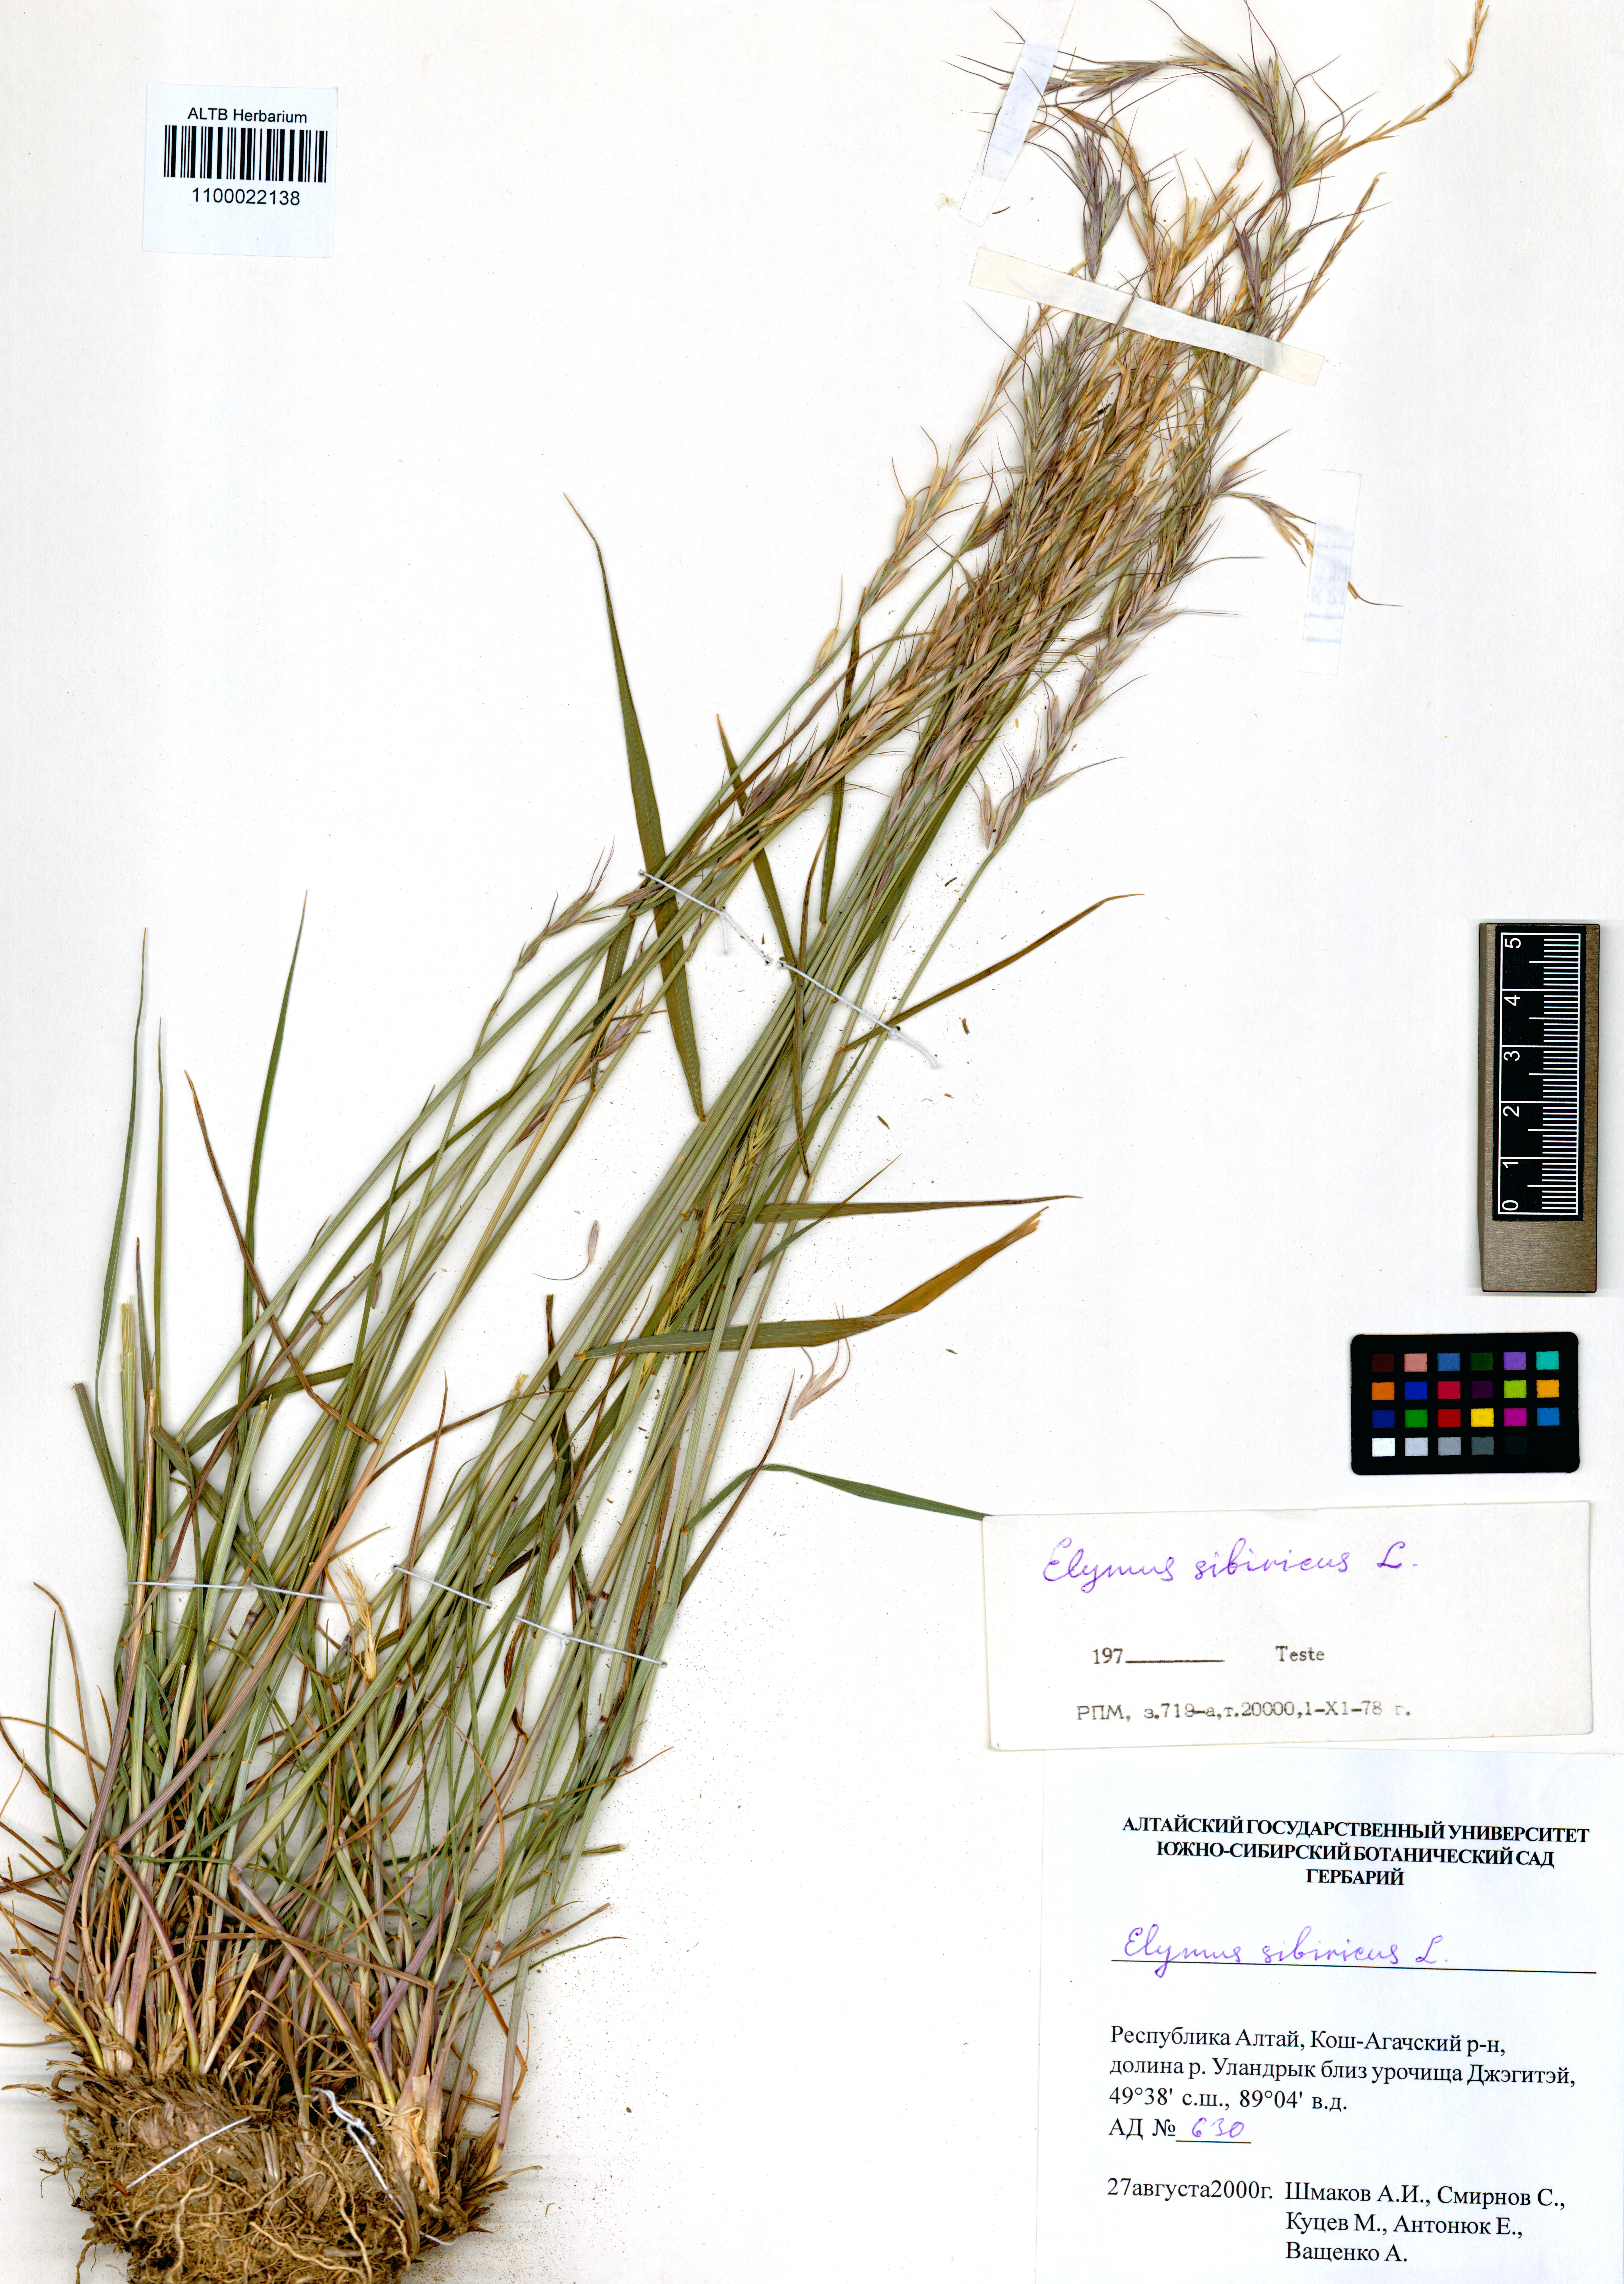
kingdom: Plantae
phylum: Tracheophyta
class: Liliopsida
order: Poales
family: Poaceae
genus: Elymus
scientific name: Elymus sibiricus
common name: Siberian wildrye
